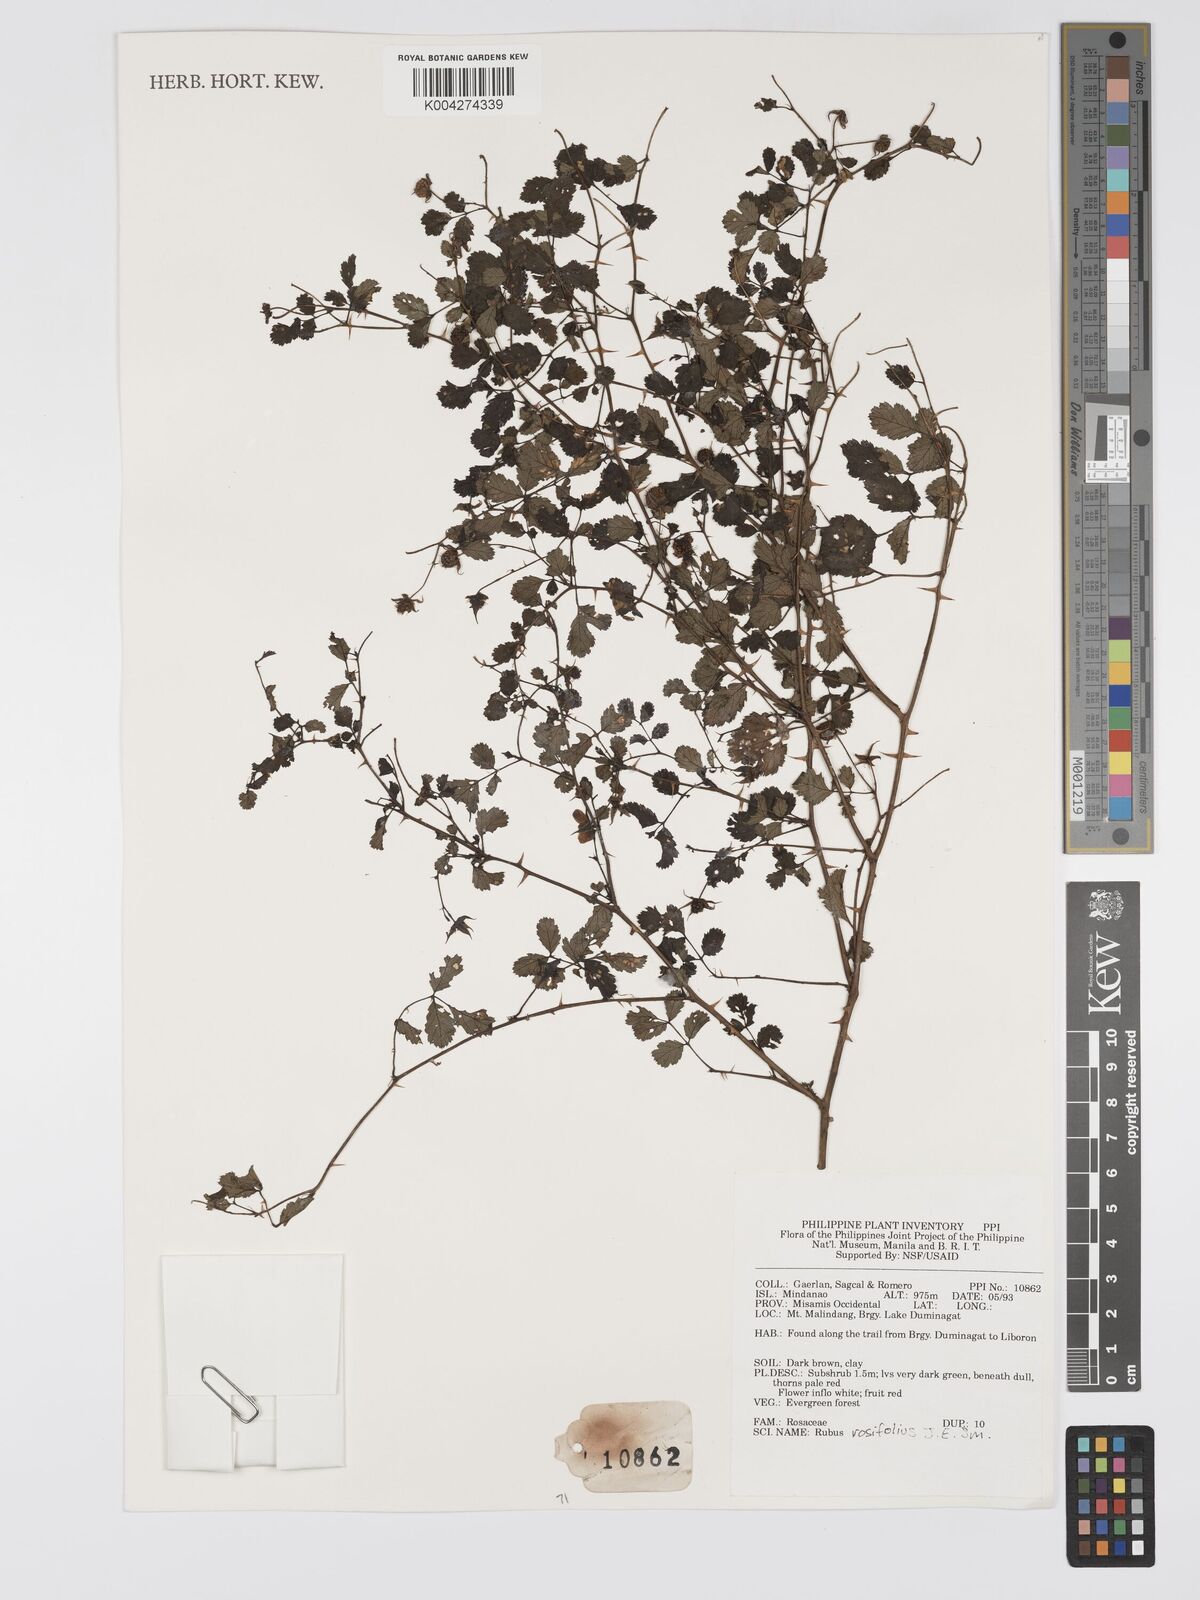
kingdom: Plantae
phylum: Tracheophyta
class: Magnoliopsida
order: Rosales
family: Rosaceae
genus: Rubus
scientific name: Rubus
